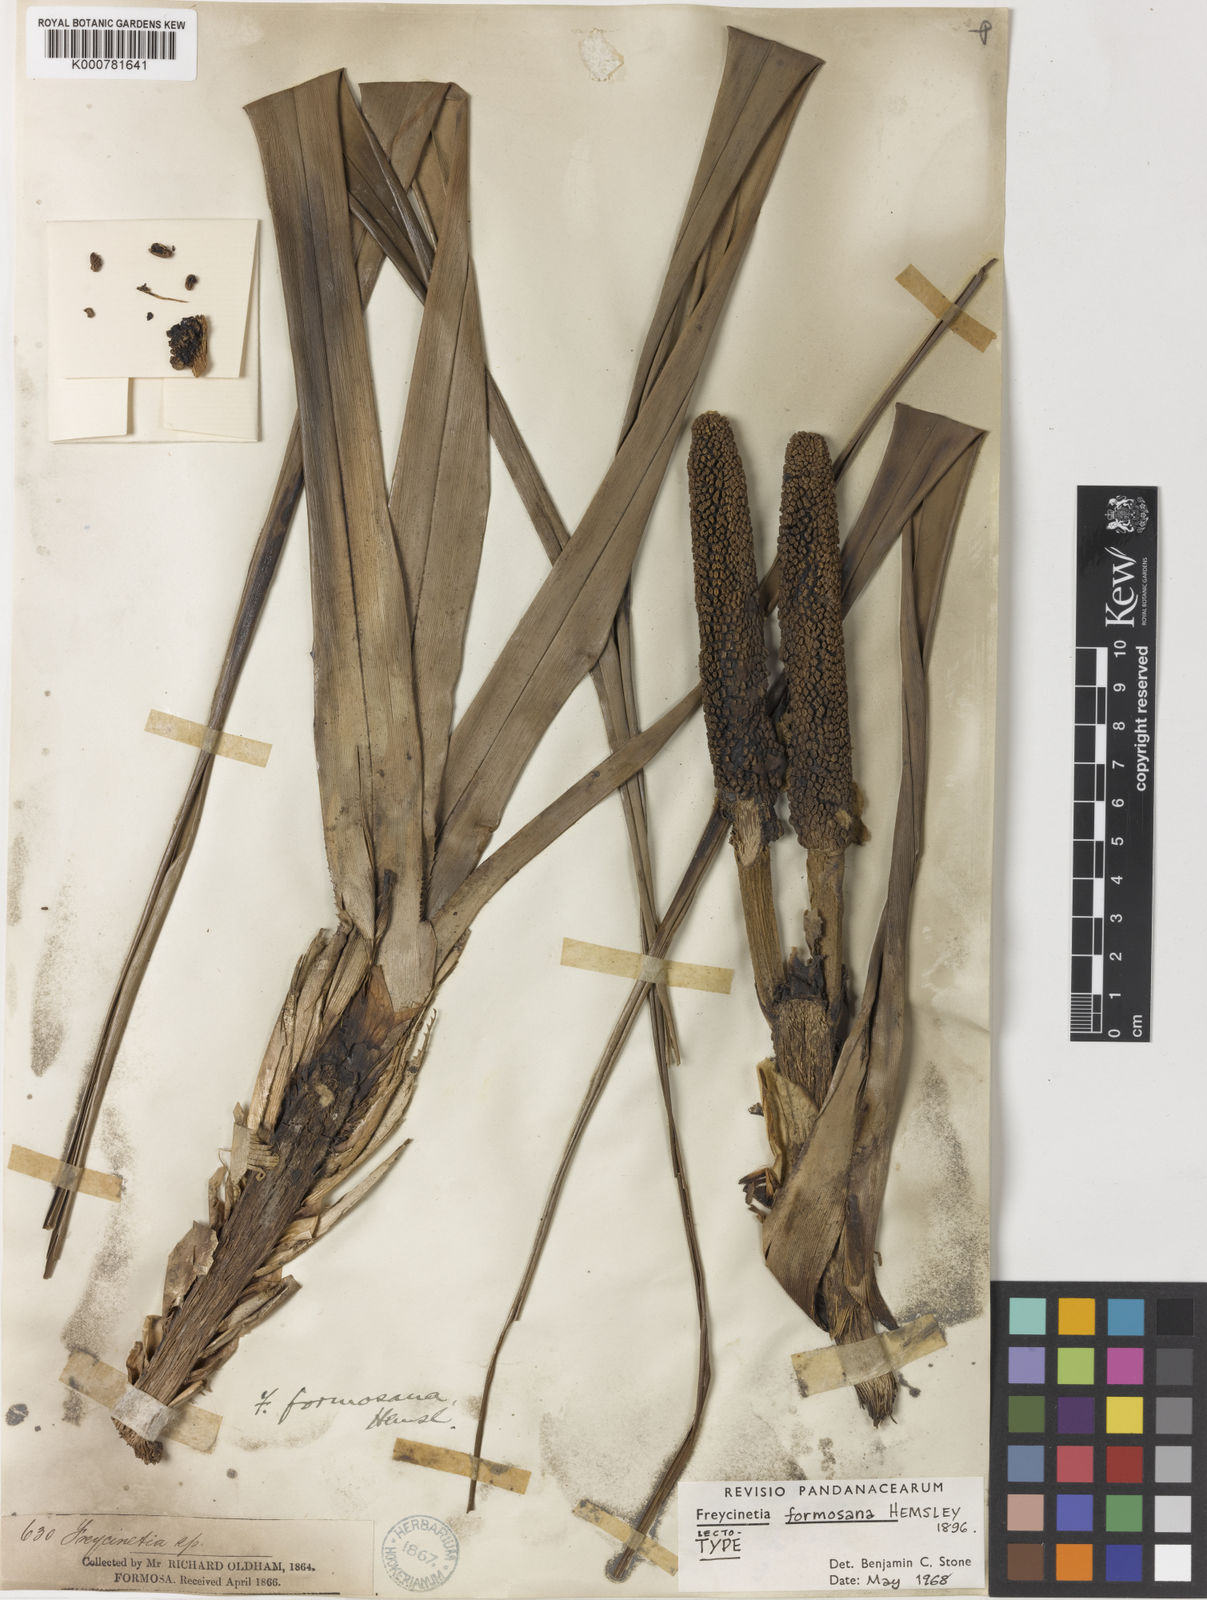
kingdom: Plantae
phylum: Tracheophyta
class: Liliopsida
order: Pandanales
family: Pandanaceae
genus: Freycinetia
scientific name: Freycinetia formosana
